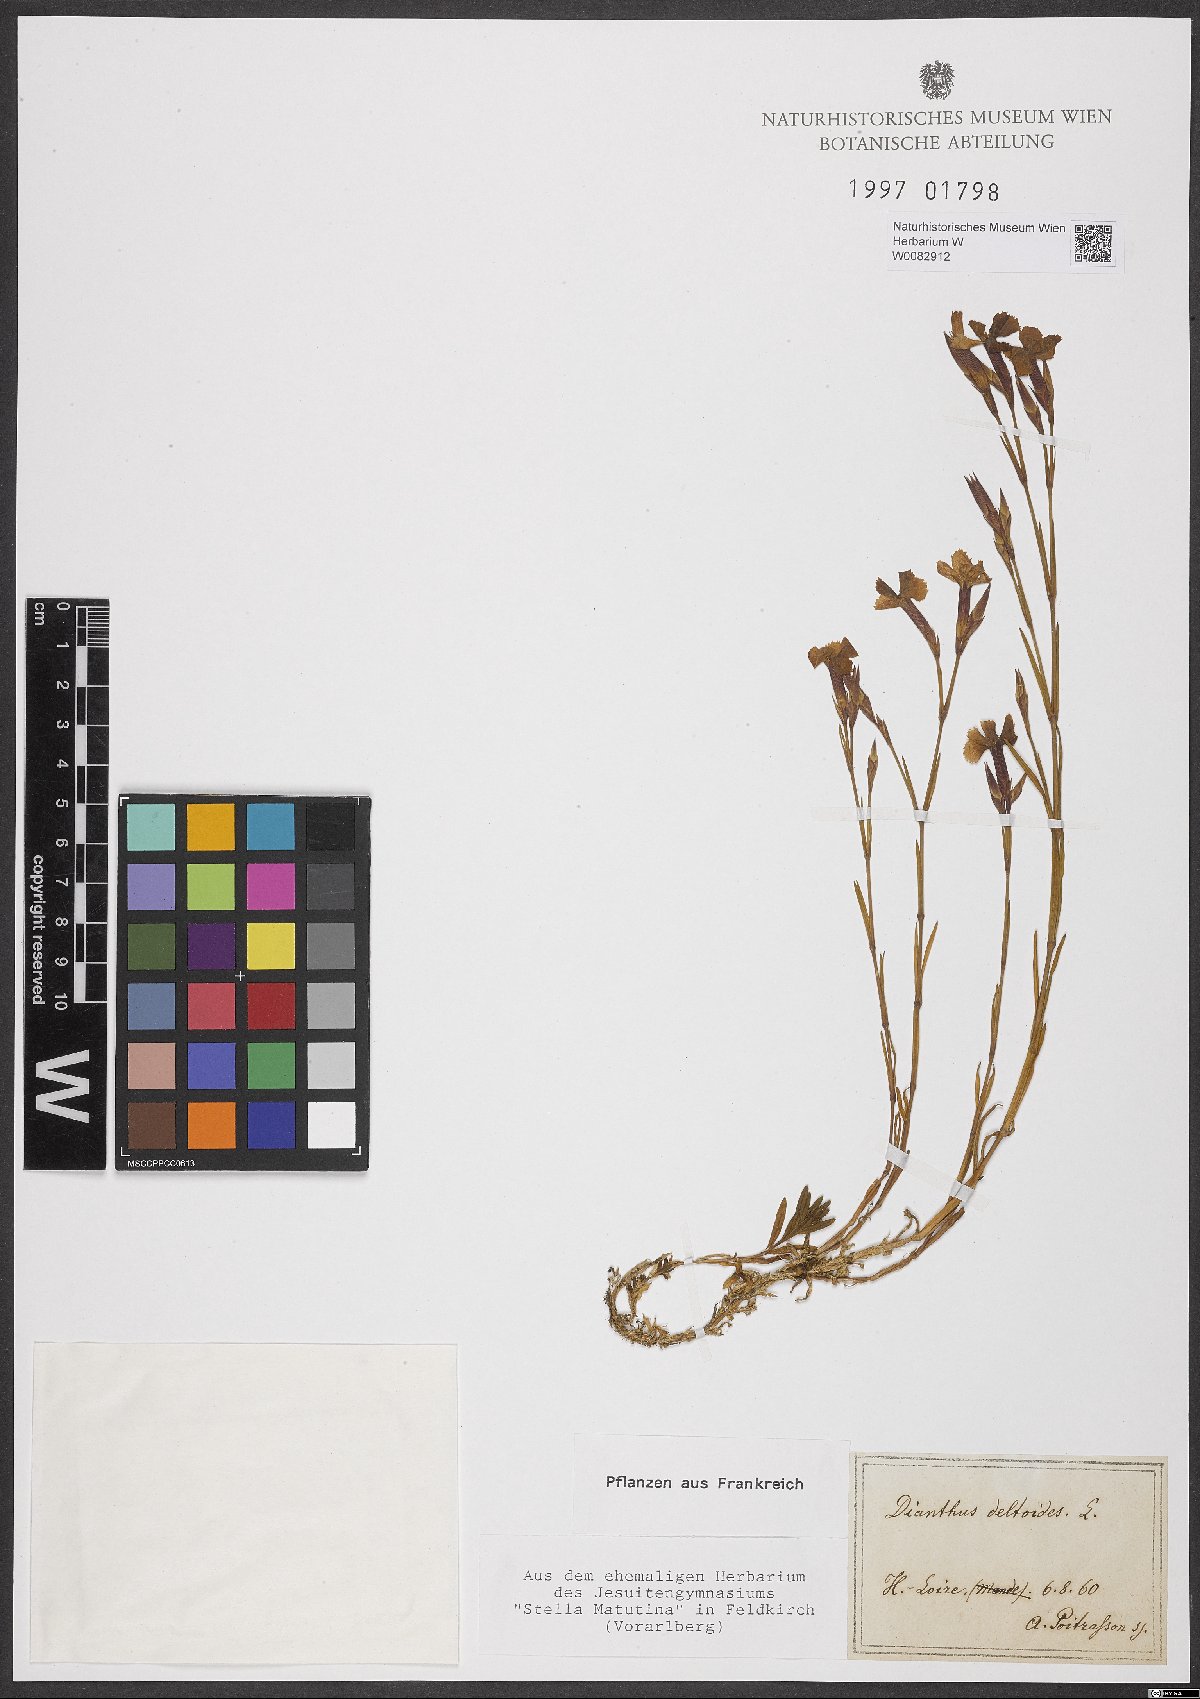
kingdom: Plantae
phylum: Tracheophyta
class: Magnoliopsida
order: Caryophyllales
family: Caryophyllaceae
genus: Dianthus
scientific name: Dianthus deltoides
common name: Maiden pink
